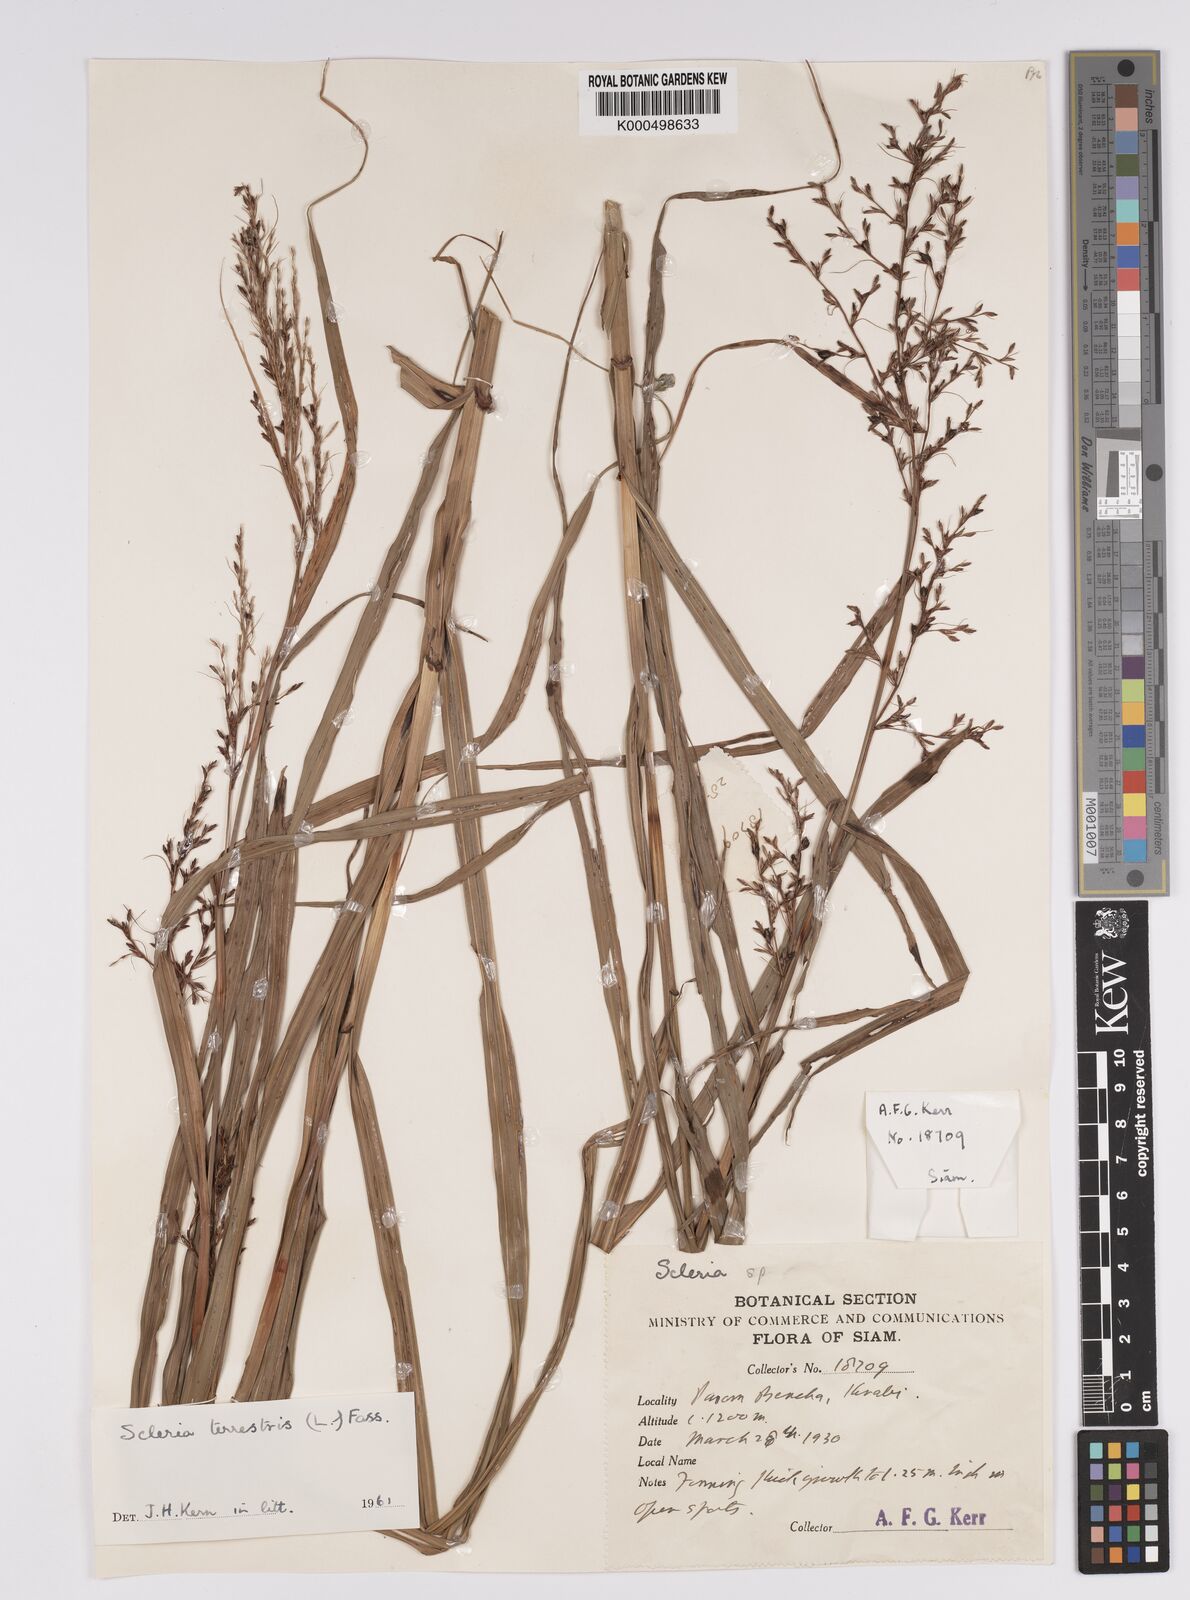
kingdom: Plantae
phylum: Tracheophyta
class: Liliopsida
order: Poales
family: Cyperaceae
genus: Scleria
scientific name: Scleria terrestris
